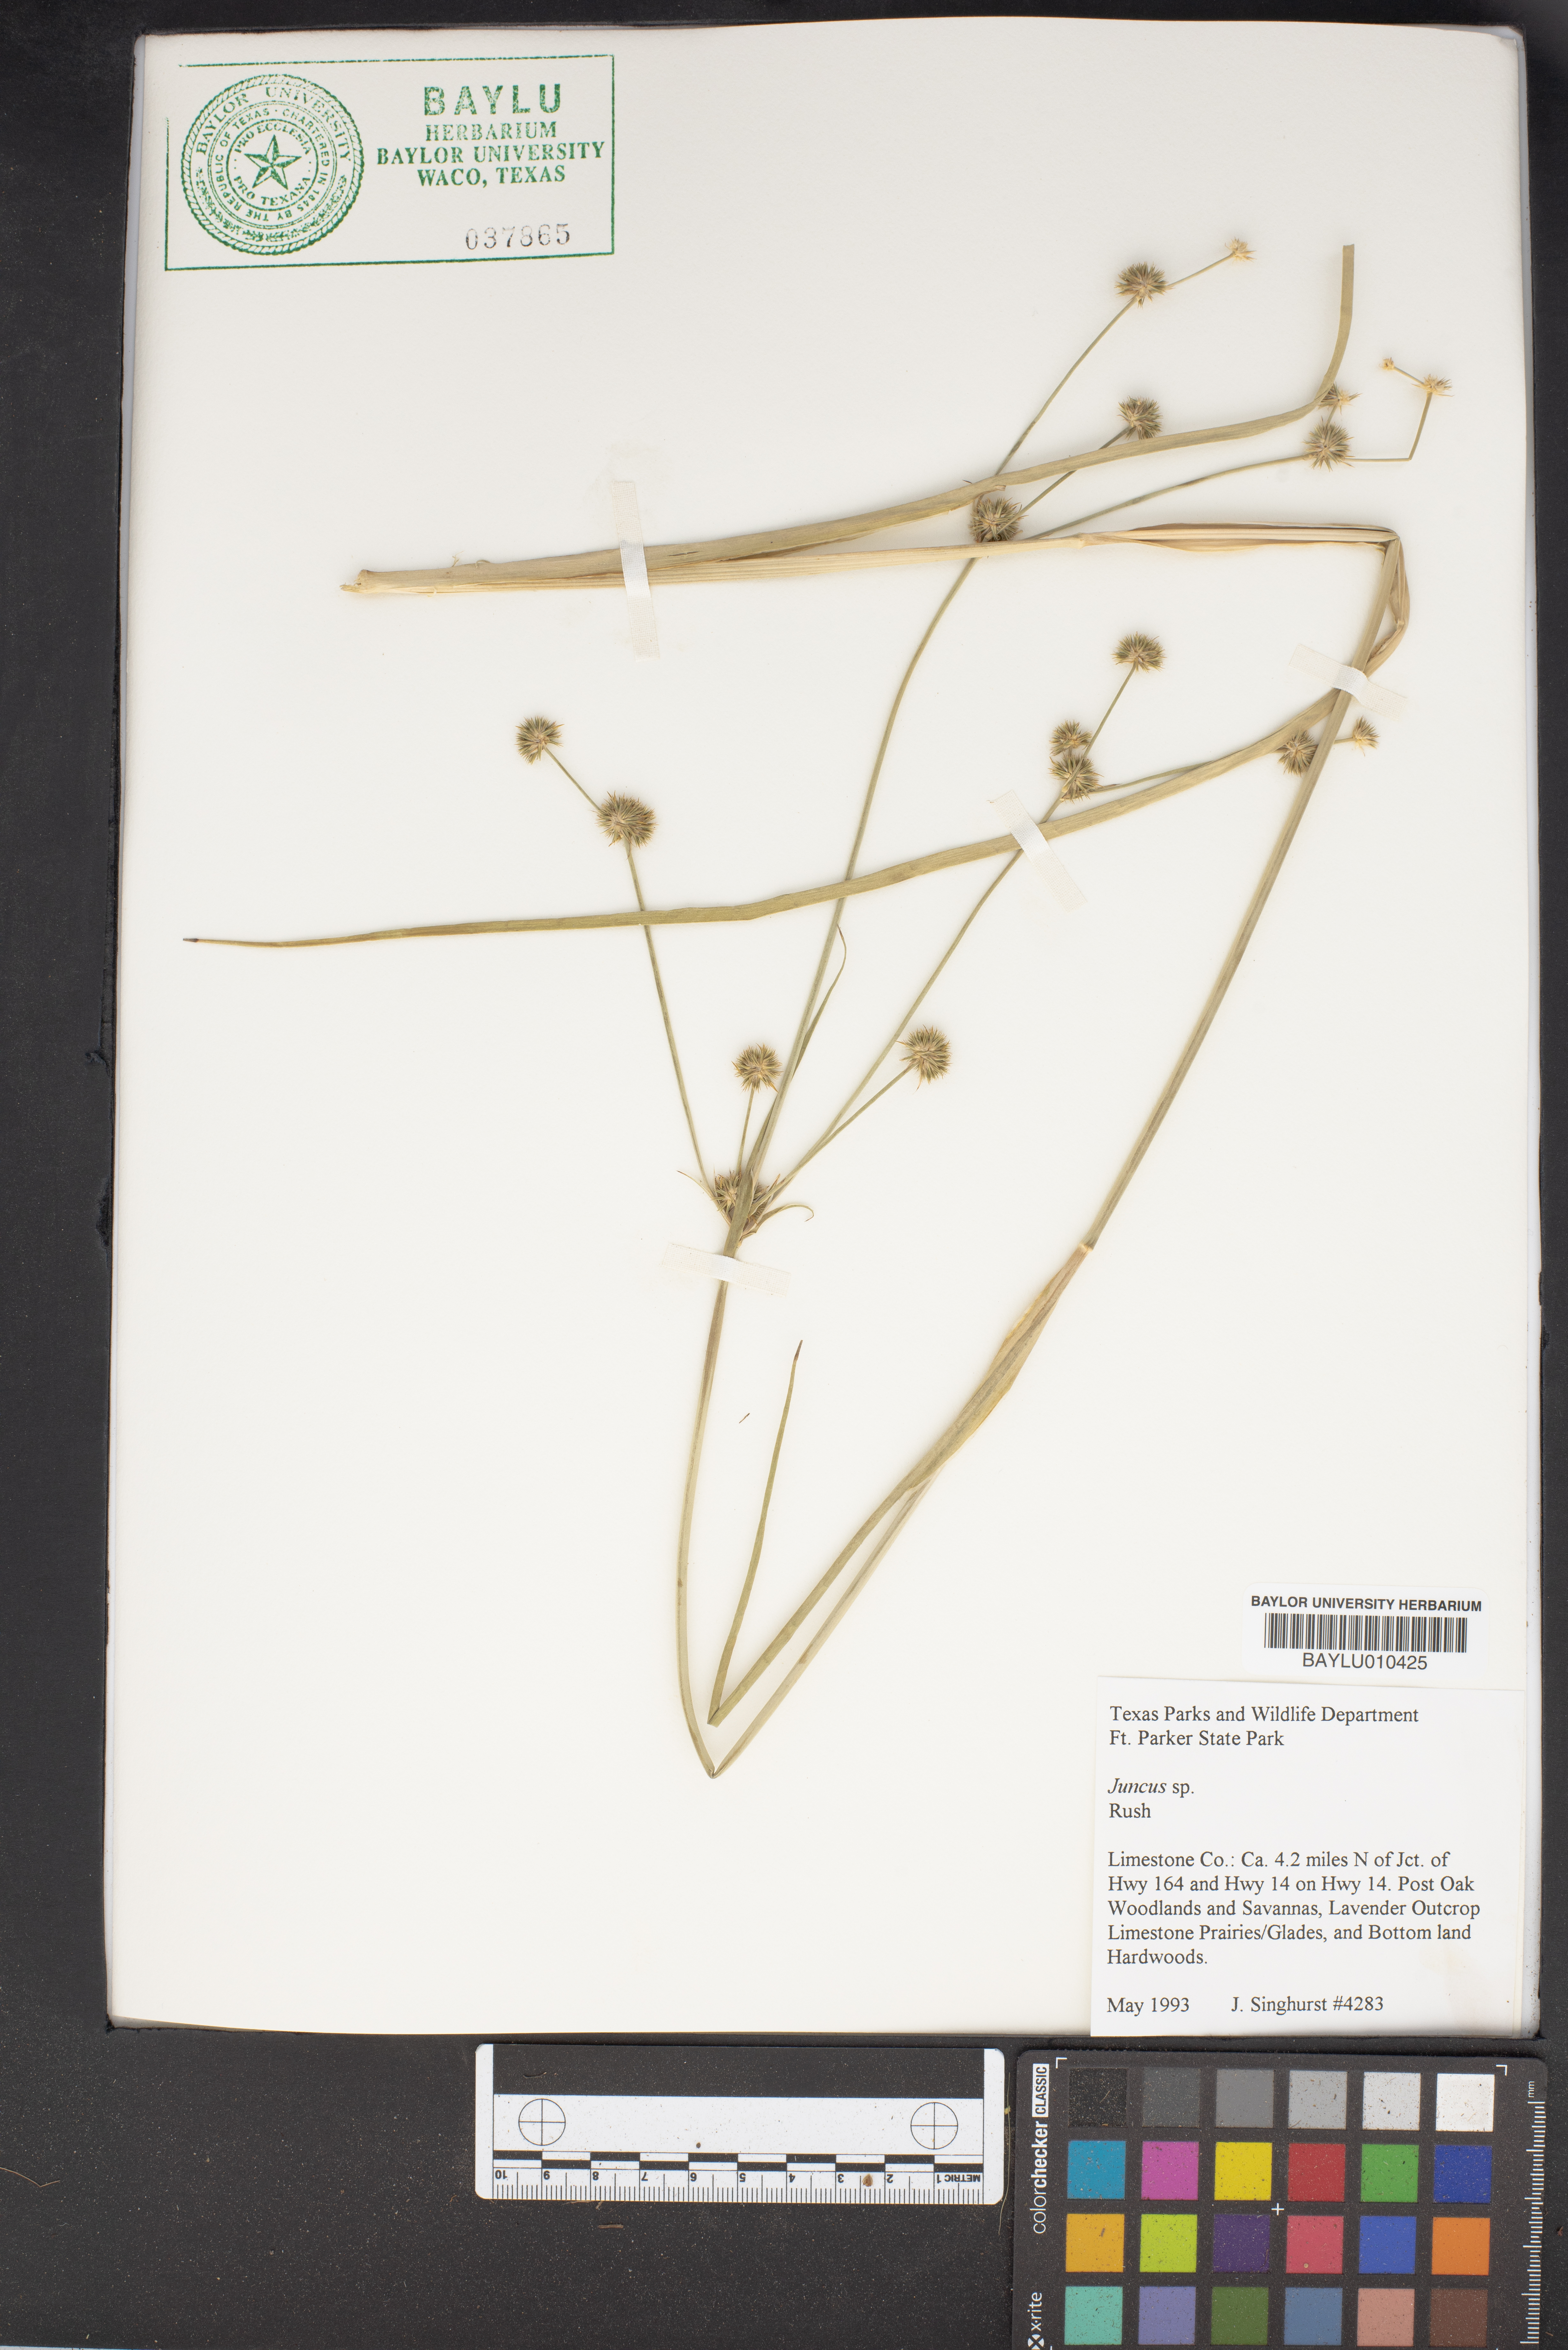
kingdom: Plantae
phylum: Tracheophyta
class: Liliopsida
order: Poales
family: Juncaceae
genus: Juncus
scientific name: Juncus
